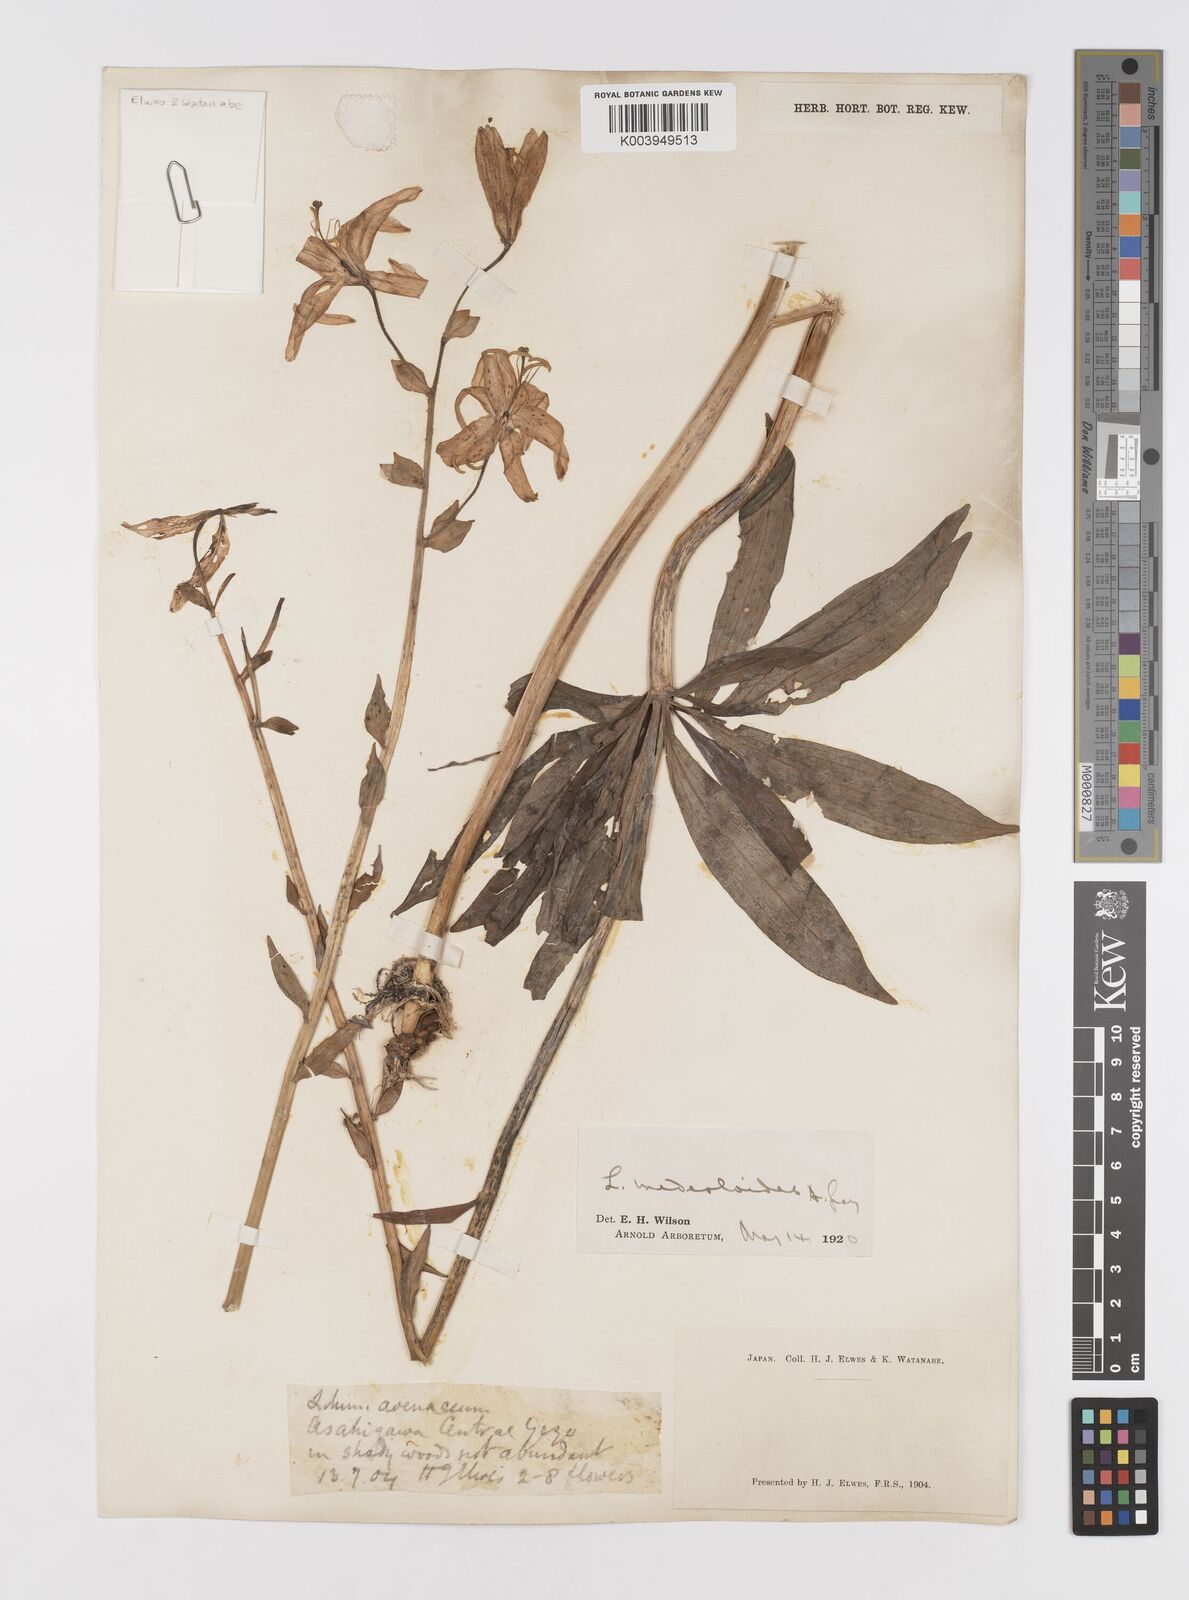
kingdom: Plantae
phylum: Tracheophyta
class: Liliopsida
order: Liliales
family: Liliaceae
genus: Lilium
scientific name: Lilium medeoloides
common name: Wheel lily
